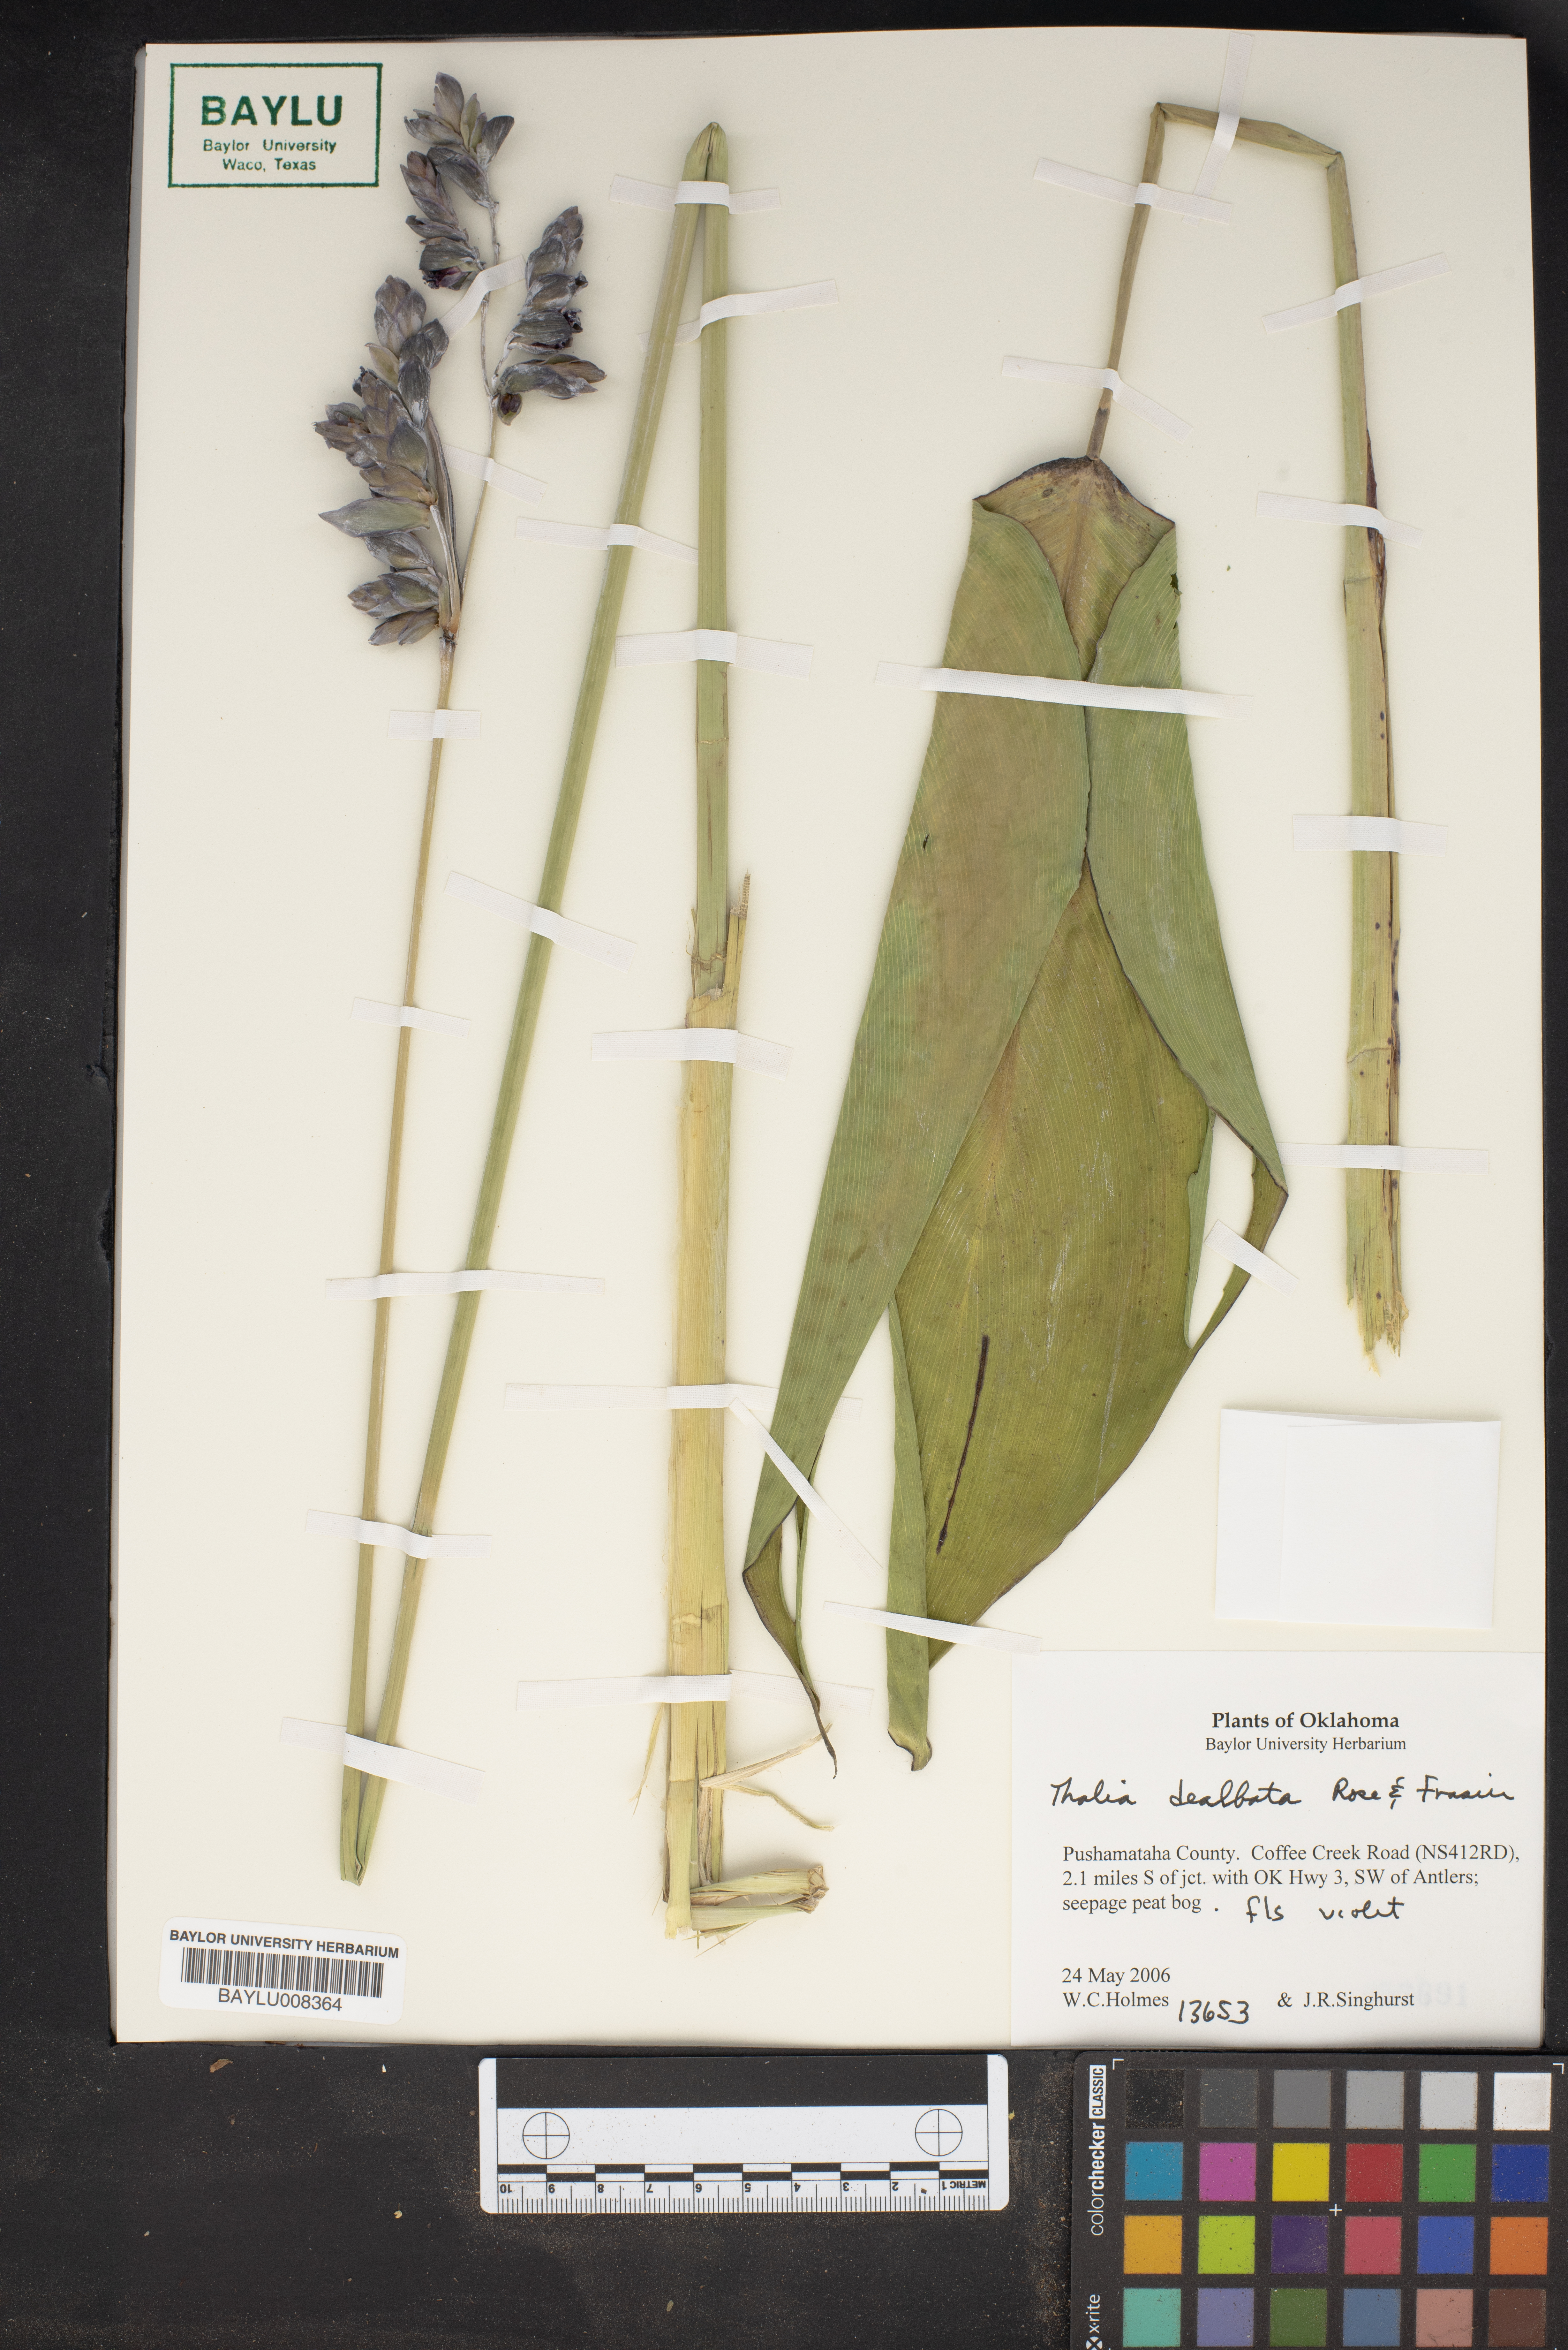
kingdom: Plantae
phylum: Tracheophyta
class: Liliopsida
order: Zingiberales
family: Marantaceae
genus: Thalia
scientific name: Thalia dealbata
